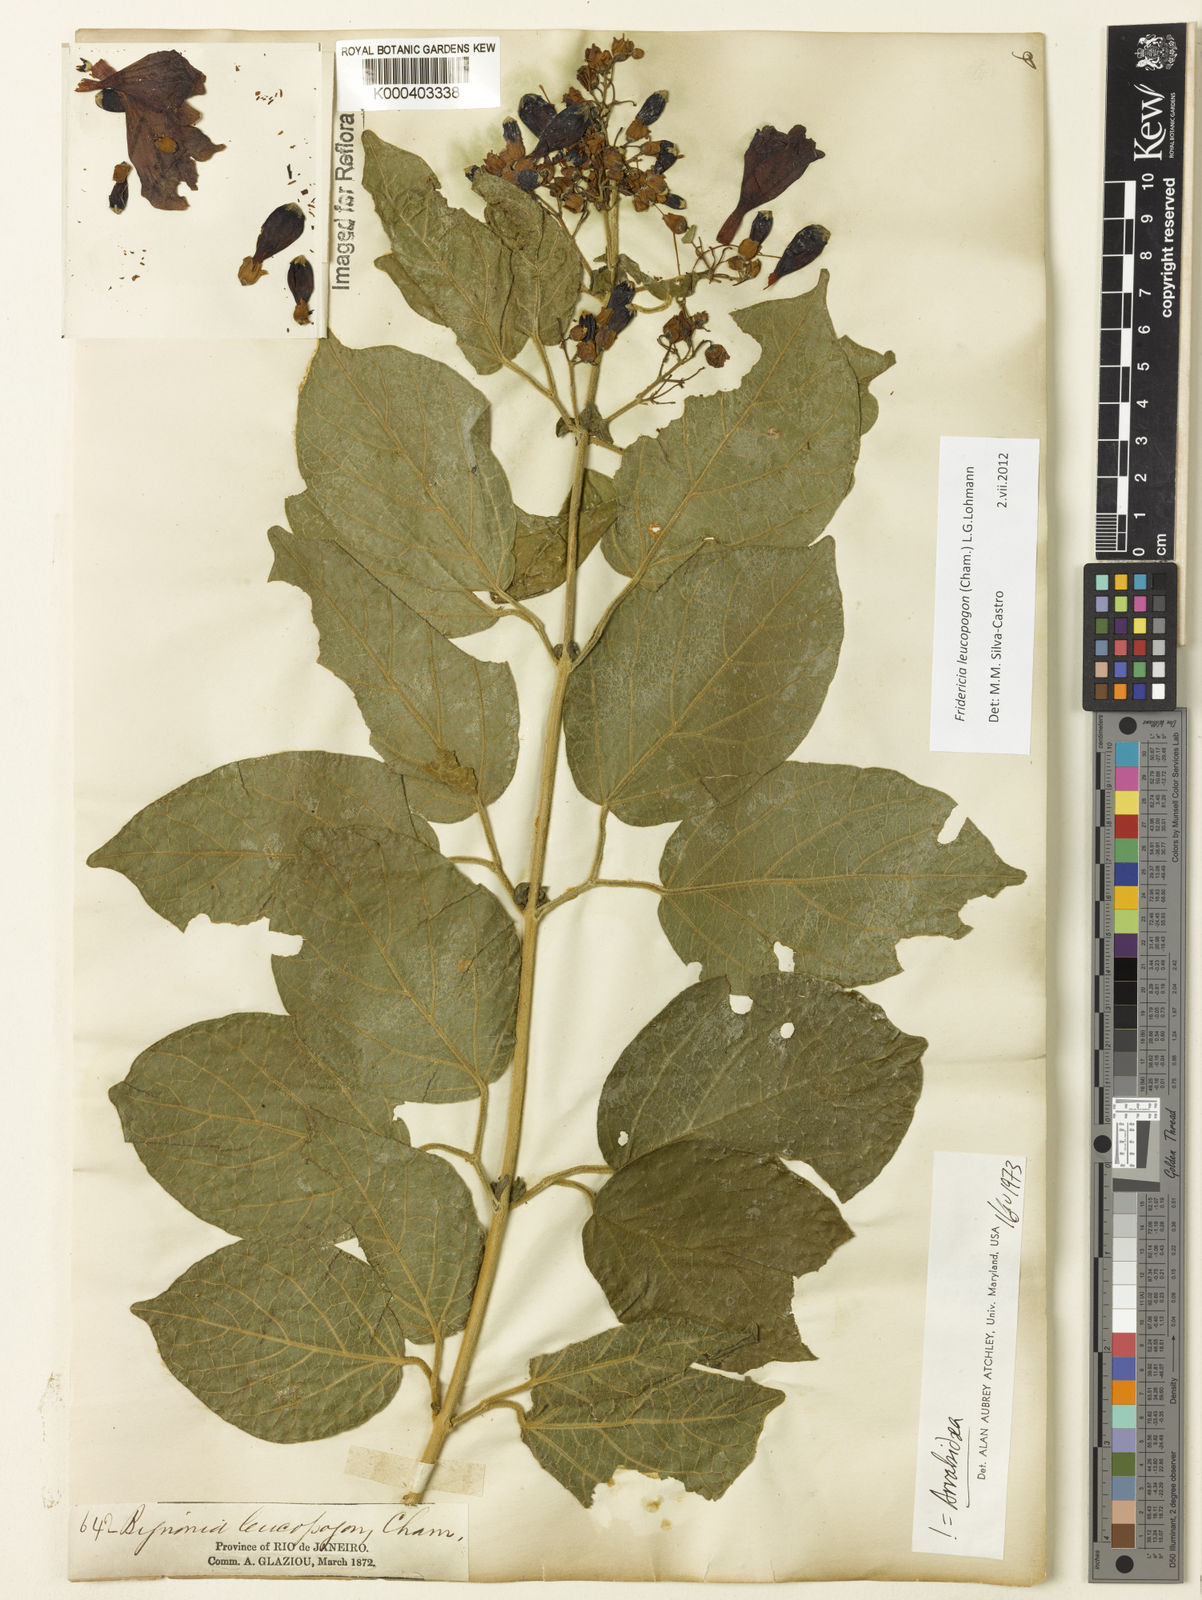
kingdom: Plantae
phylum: Tracheophyta
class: Magnoliopsida
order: Lamiales
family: Bignoniaceae
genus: Fridericia
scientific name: Fridericia leucopogon
